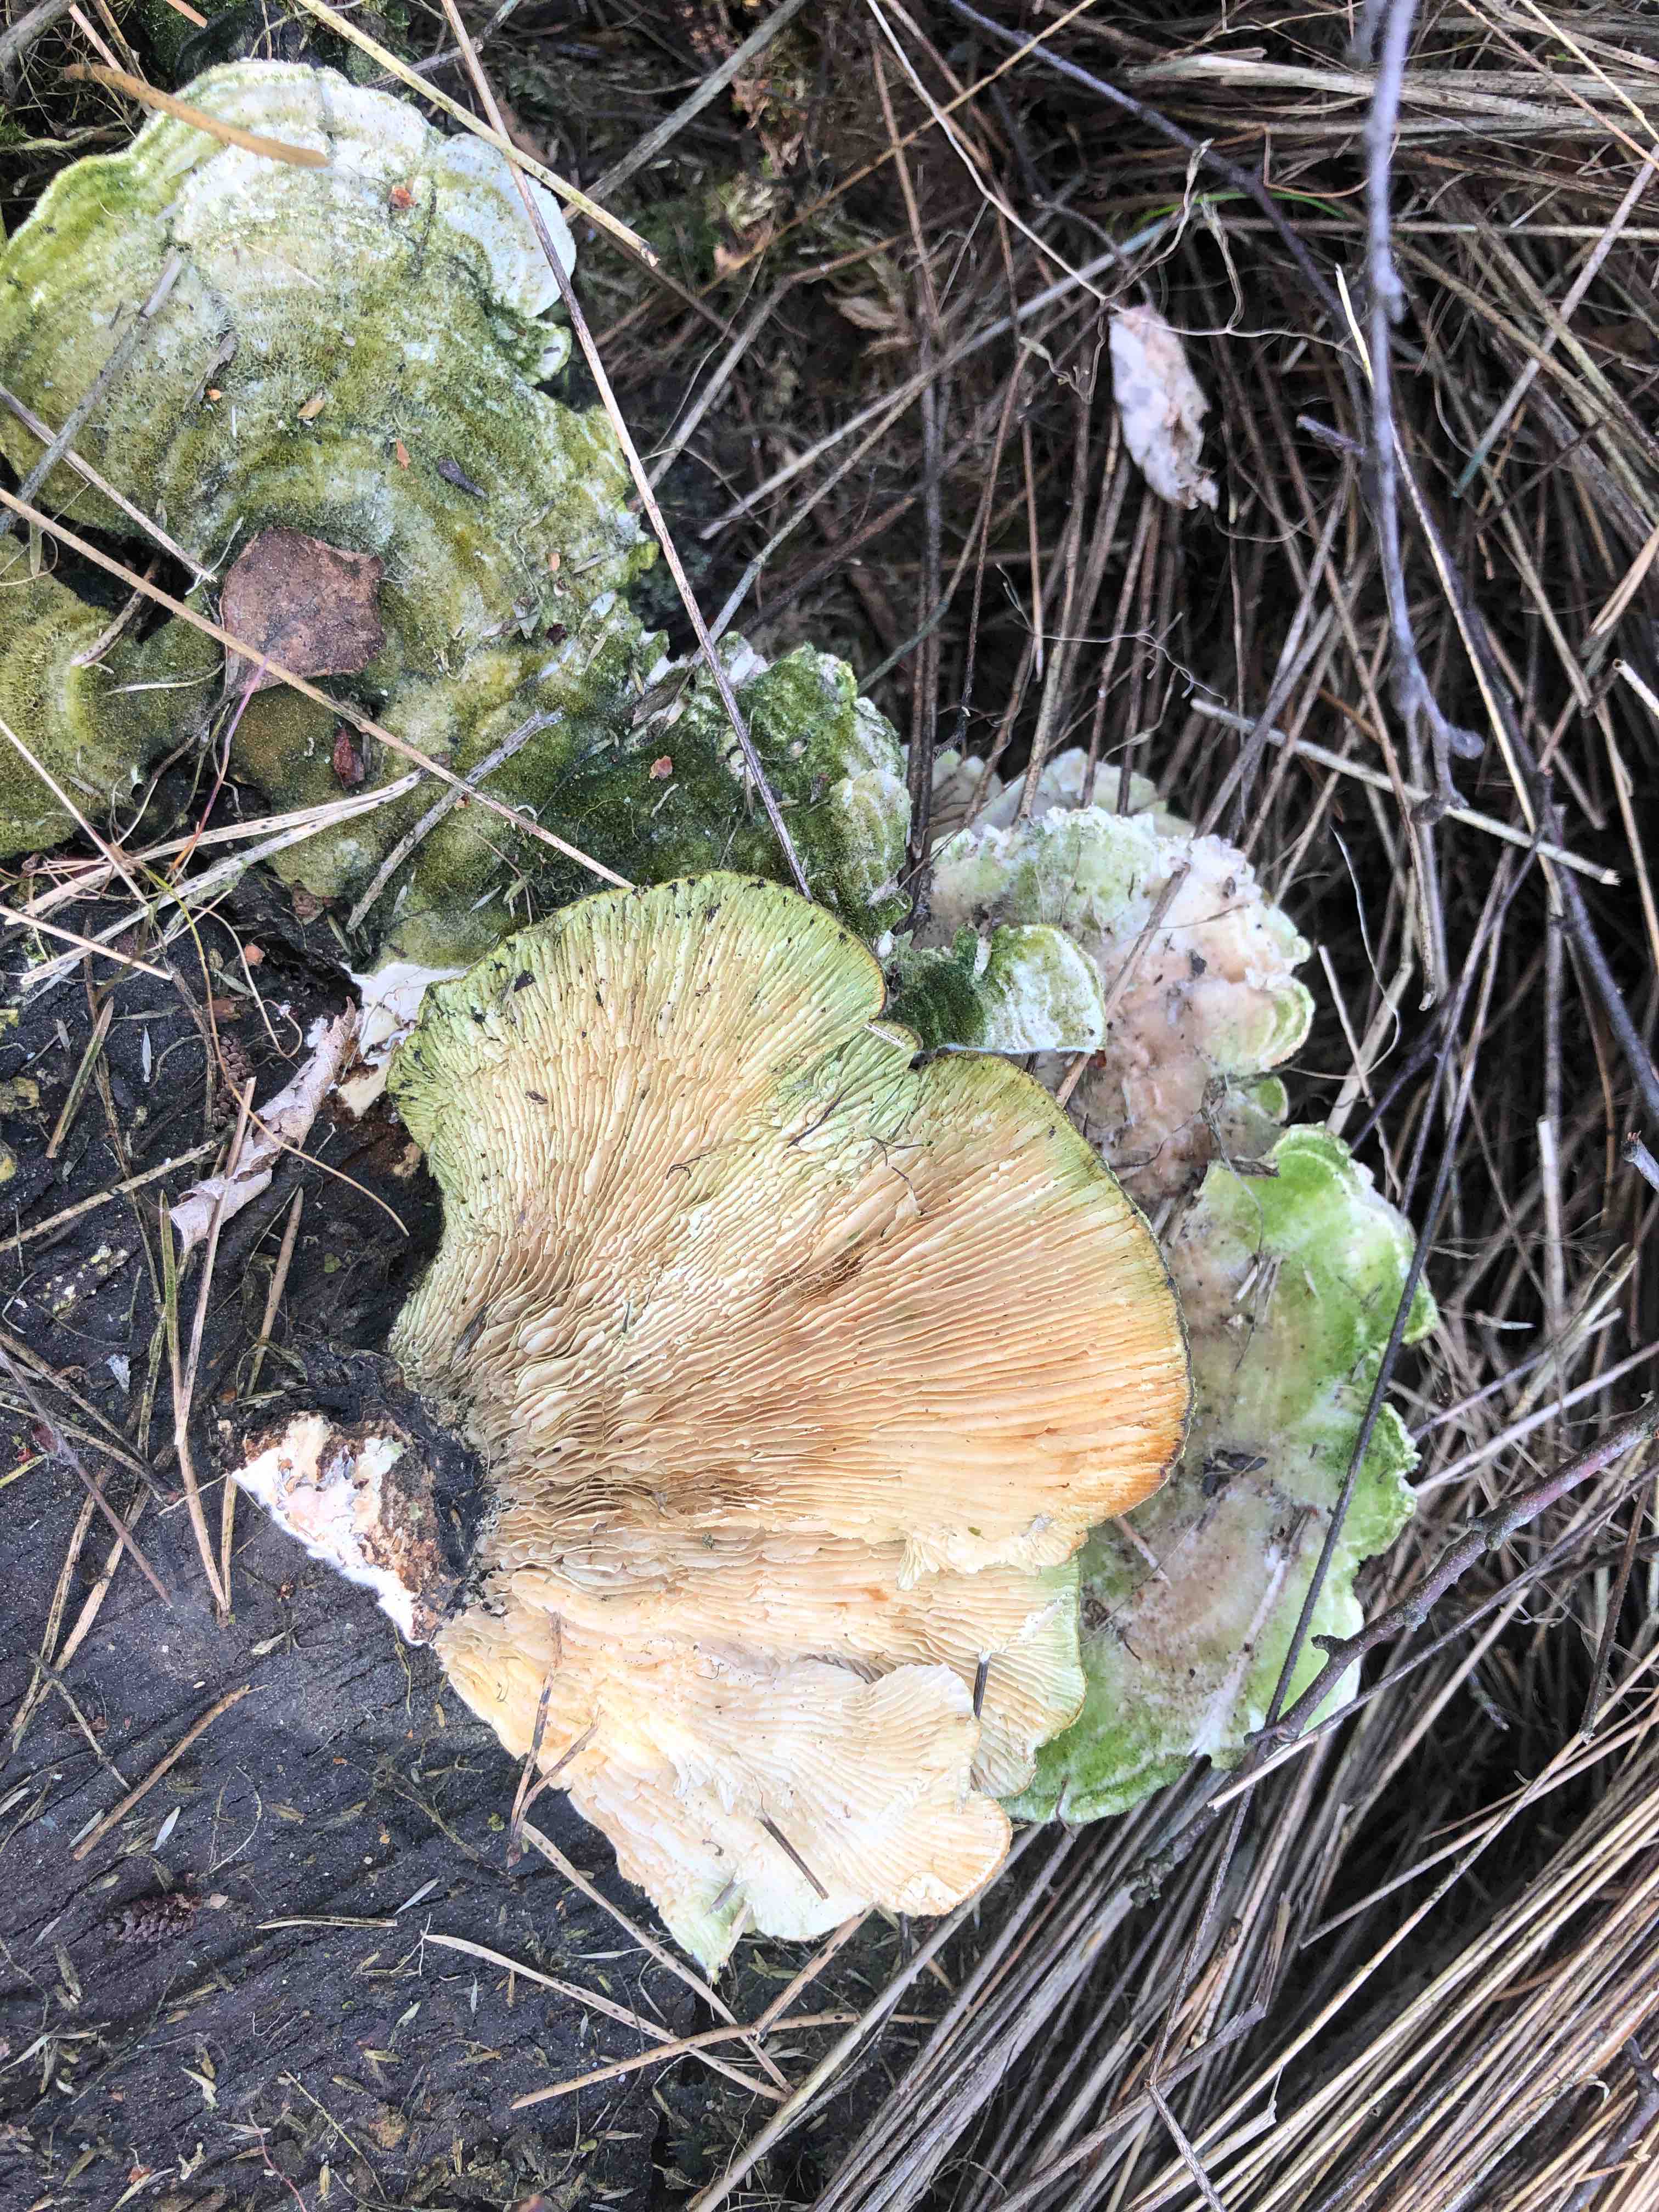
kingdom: Fungi
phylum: Basidiomycota
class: Agaricomycetes
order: Polyporales
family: Polyporaceae
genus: Lenzites
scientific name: Lenzites betulinus
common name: birke-læderporesvamp
